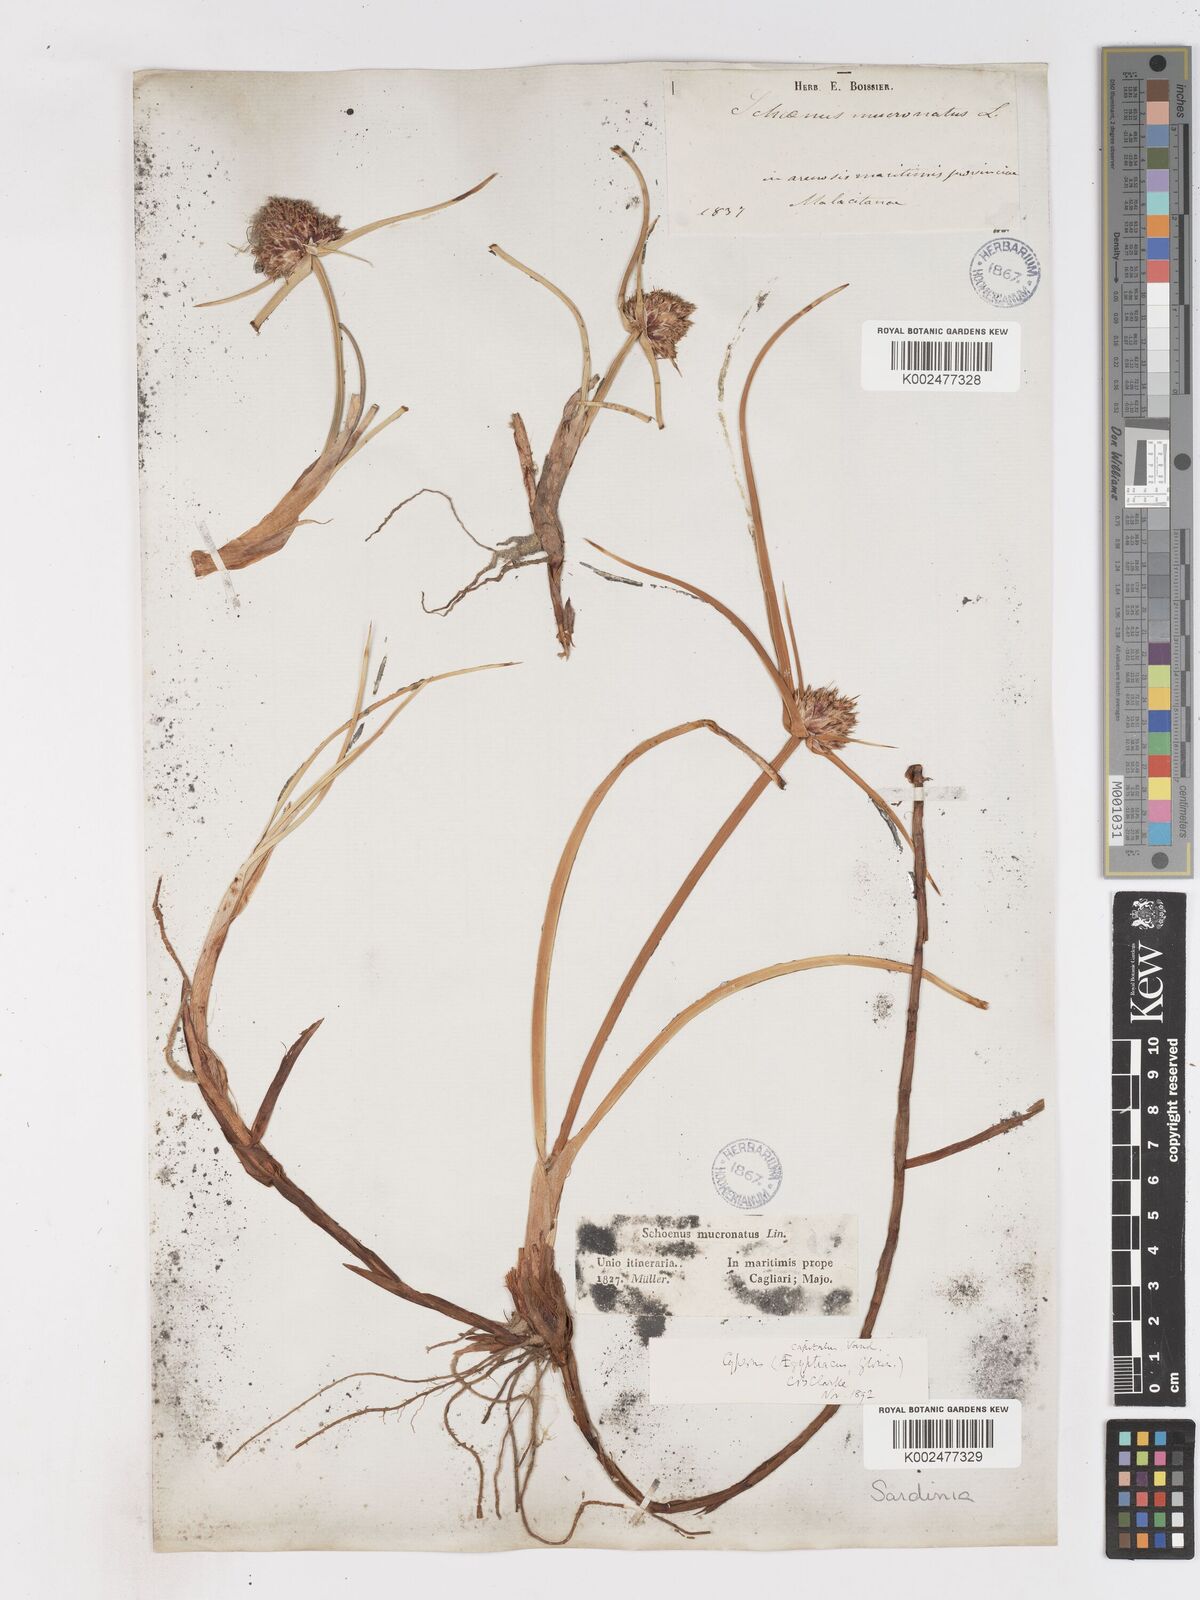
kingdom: Plantae
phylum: Tracheophyta
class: Liliopsida
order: Poales
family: Cyperaceae
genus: Cyperus
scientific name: Cyperus capitatus
